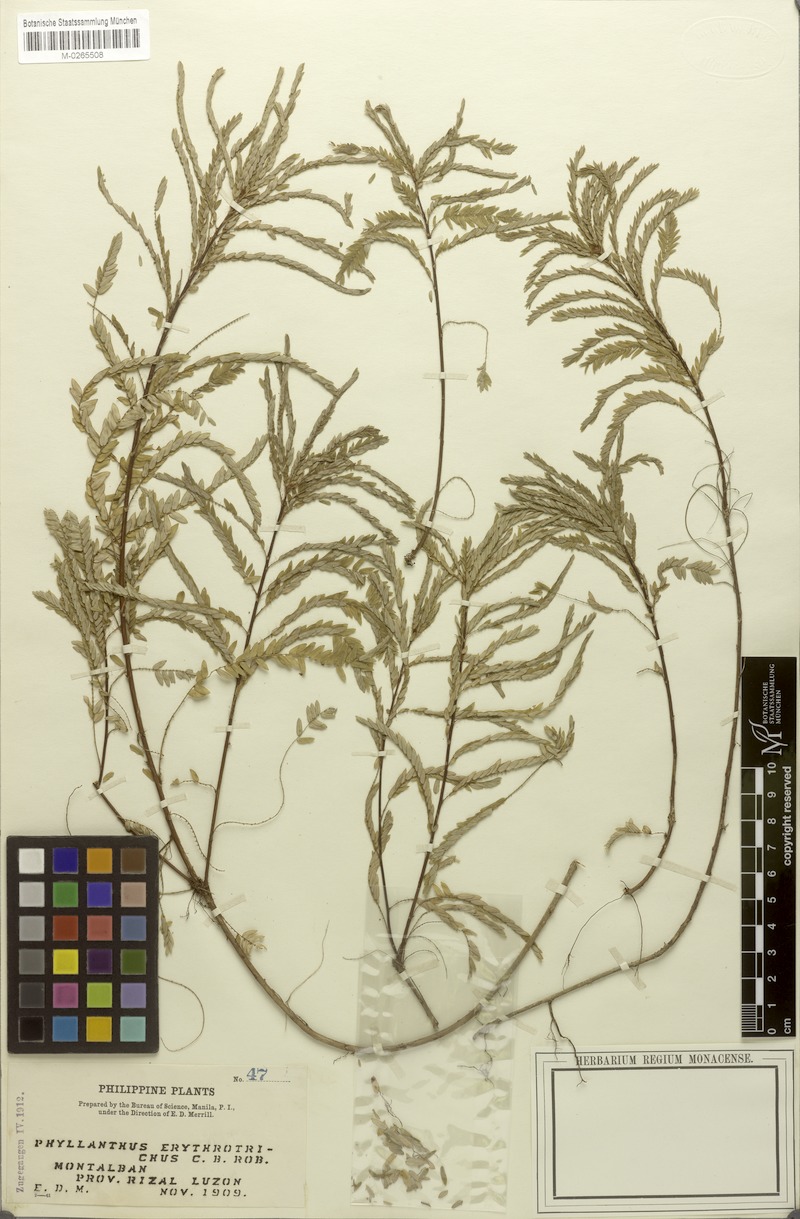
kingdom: Plantae
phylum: Tracheophyta
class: Magnoliopsida
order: Malpighiales
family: Phyllanthaceae
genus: Phyllanthus
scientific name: Phyllanthus erythrotrichus
